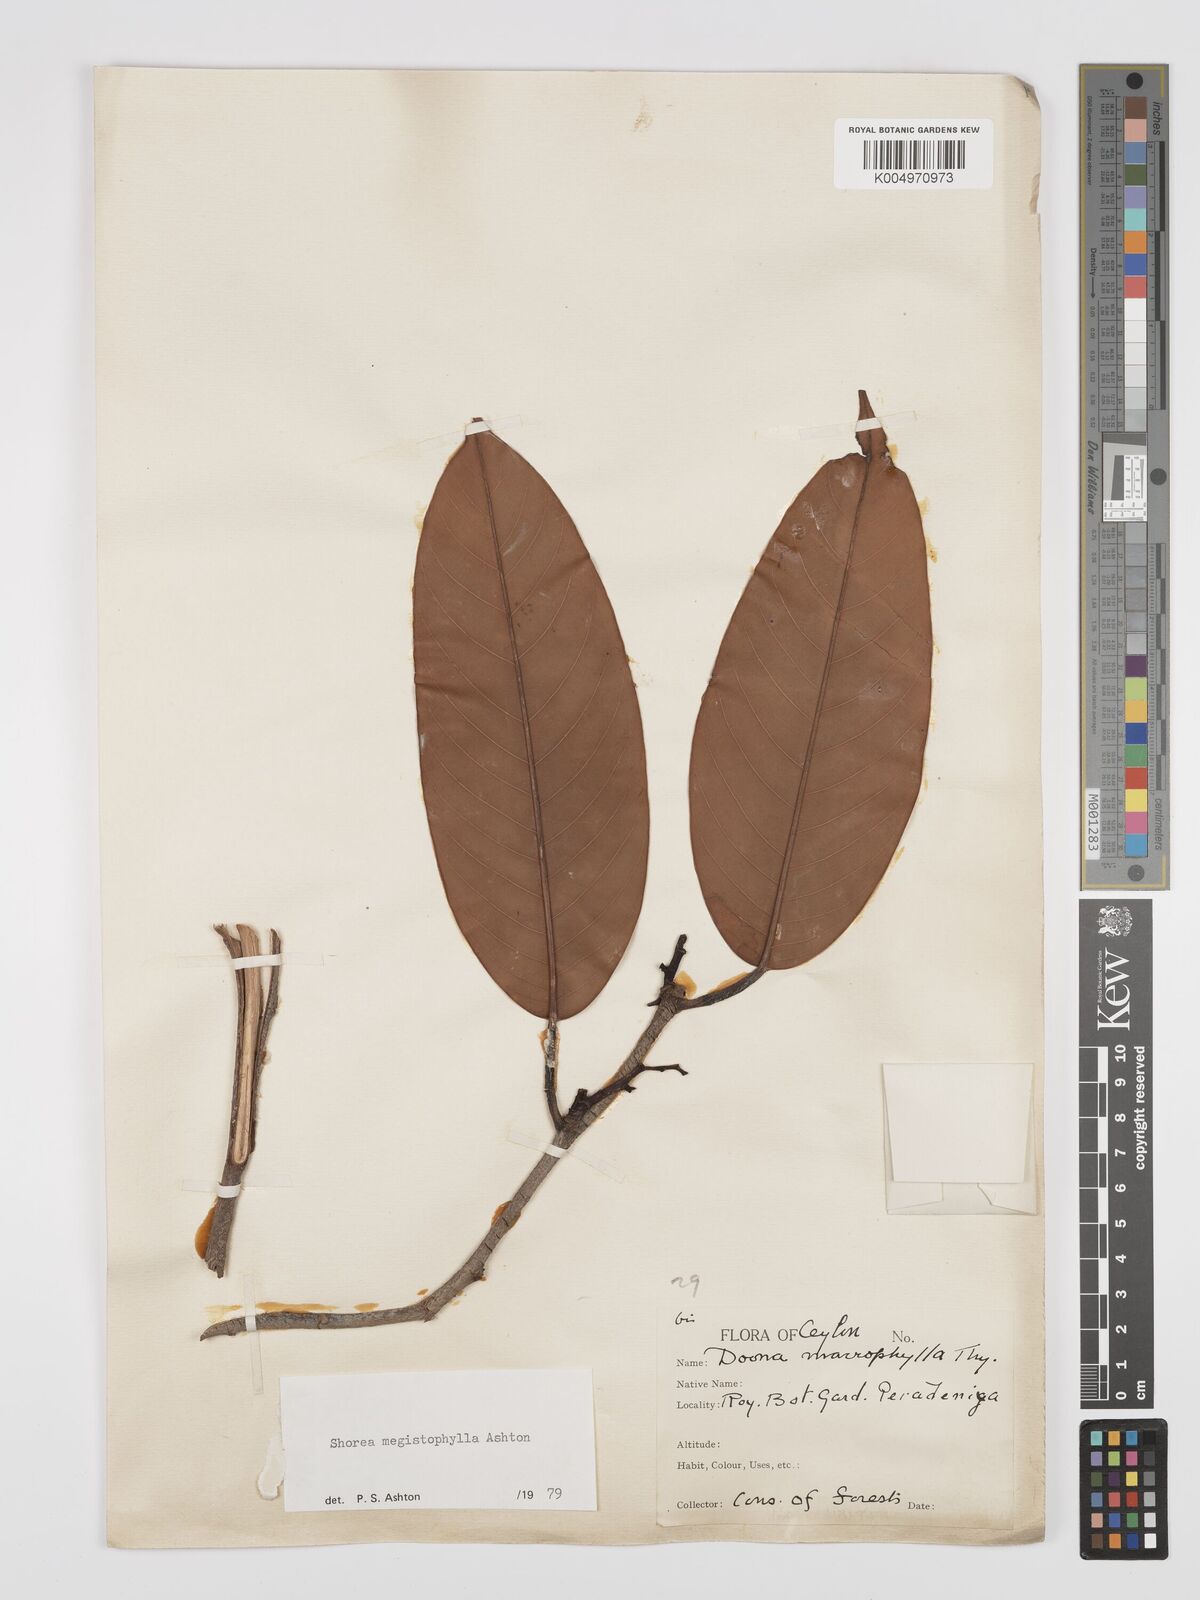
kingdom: Plantae
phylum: Tracheophyta
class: Magnoliopsida
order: Malvales
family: Dipterocarpaceae
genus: Doona
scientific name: Doona macrophylla
